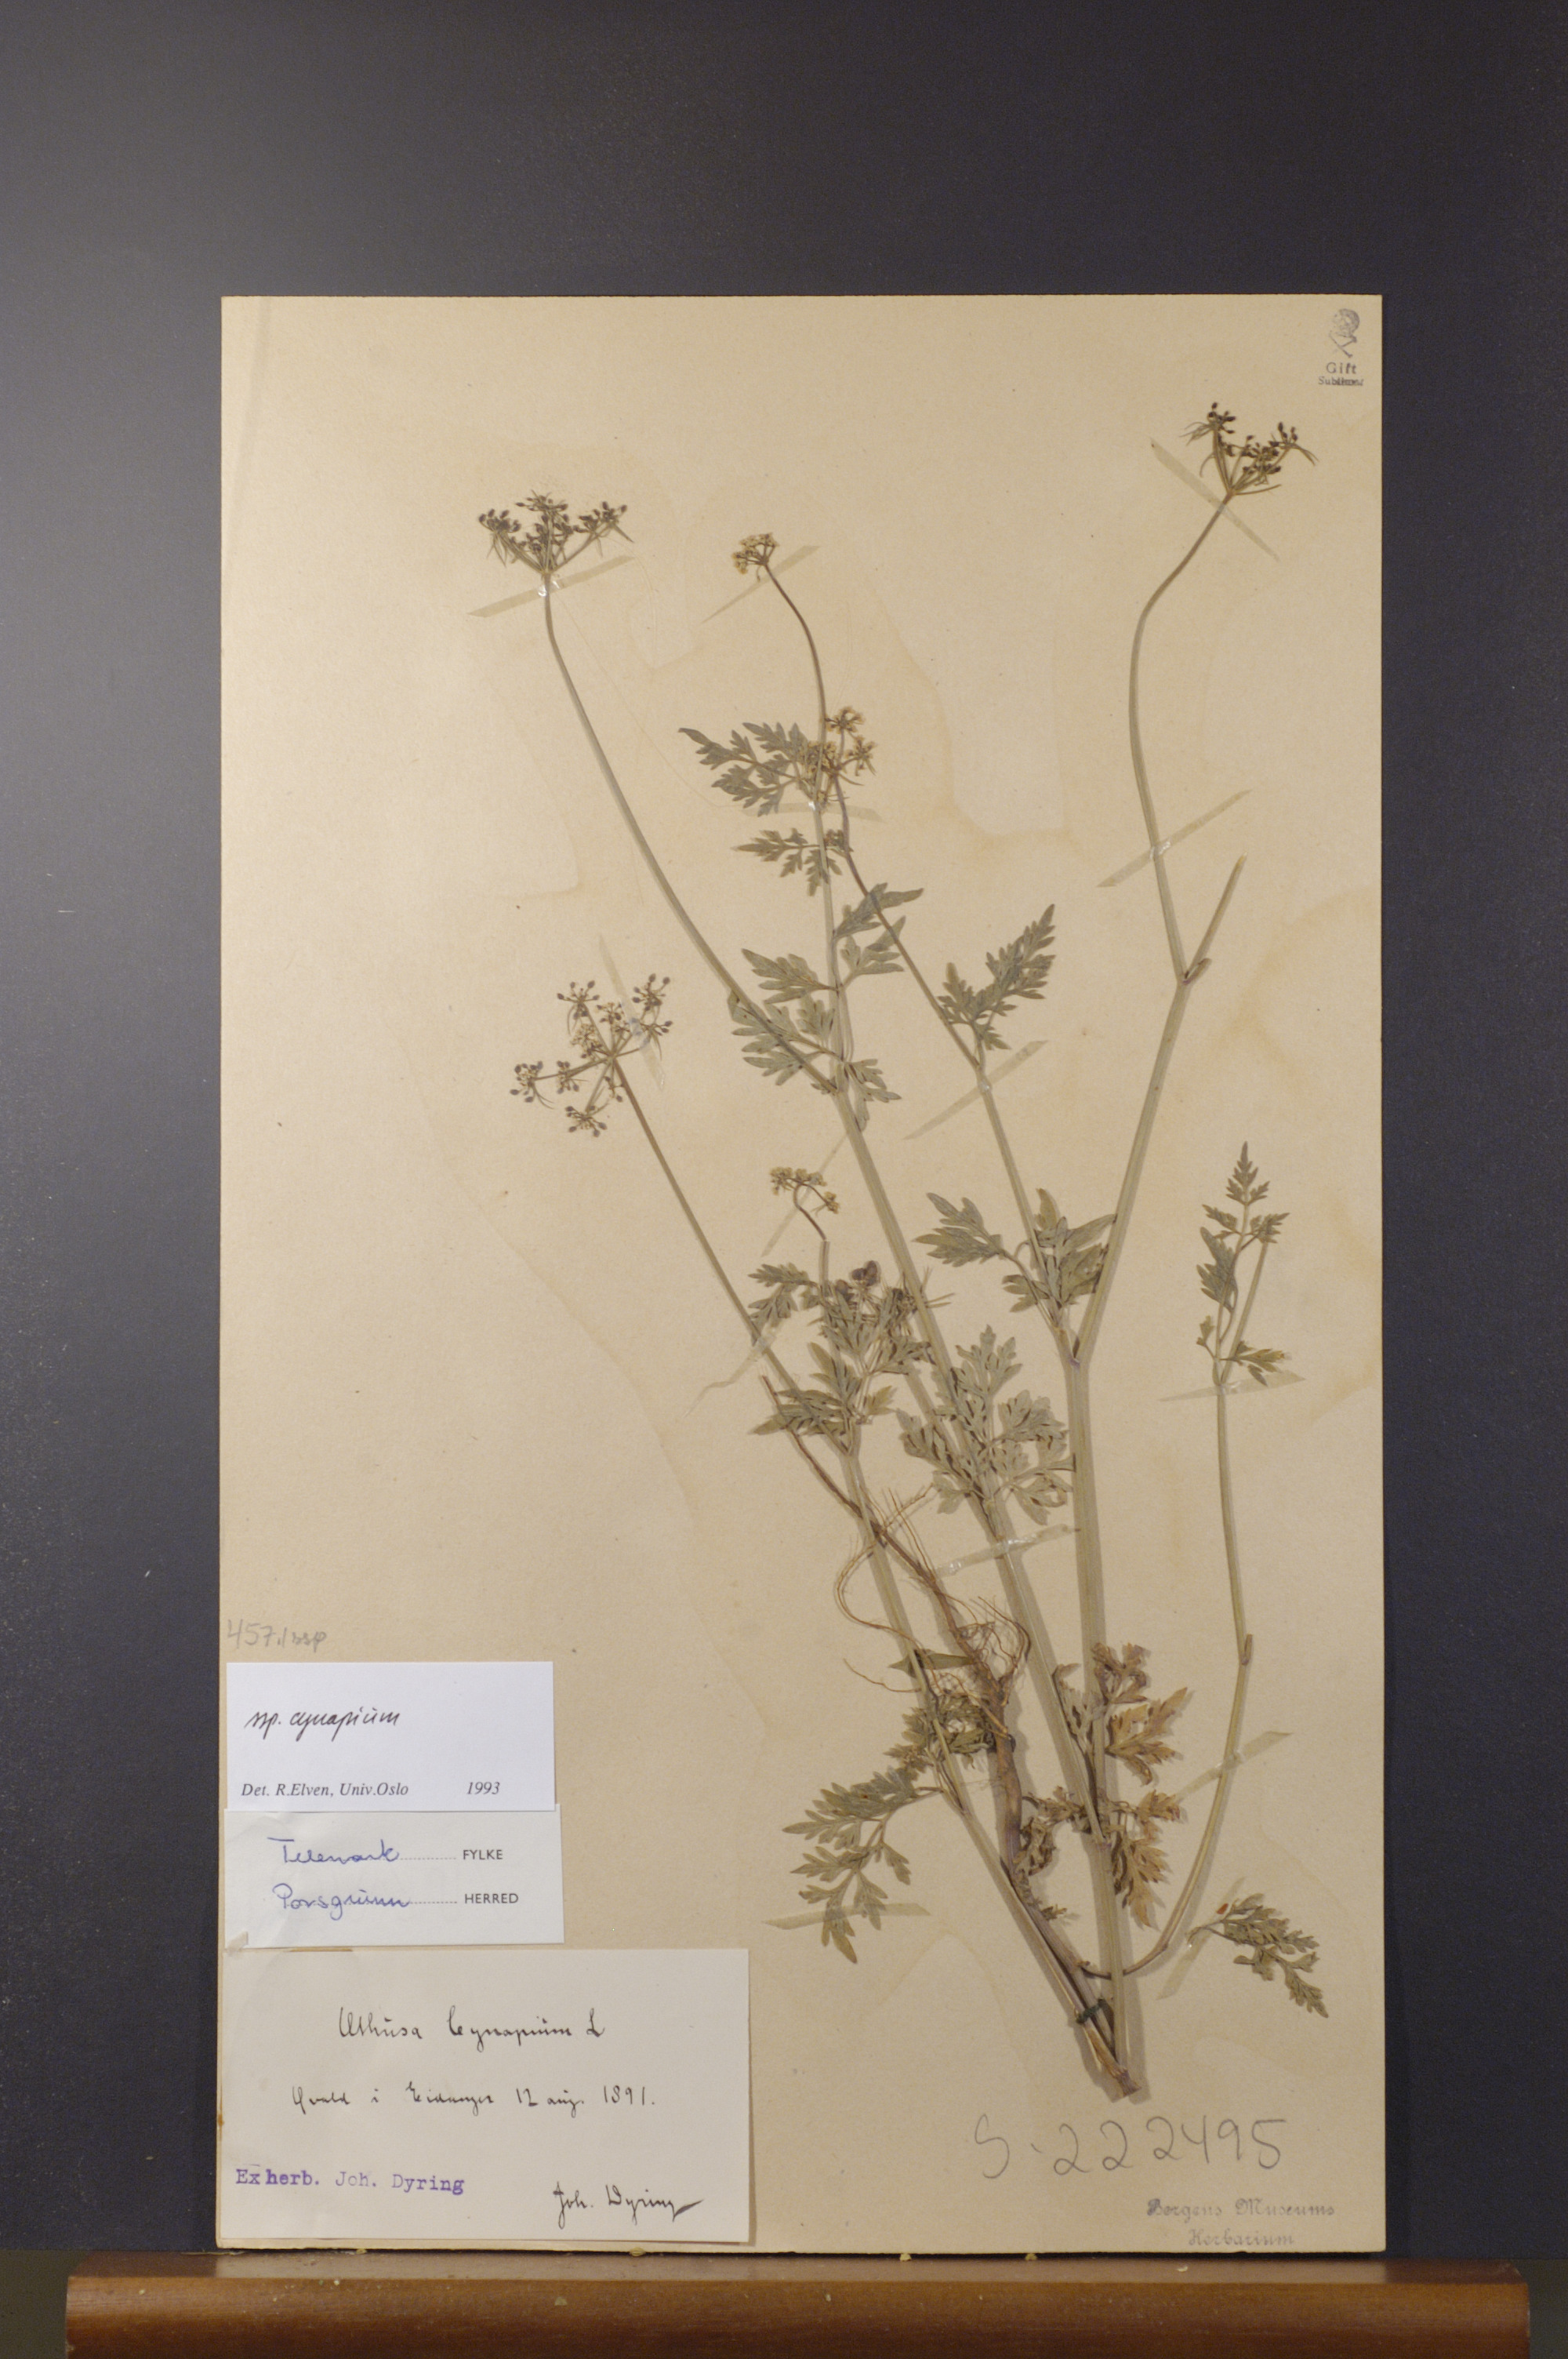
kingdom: Plantae
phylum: Tracheophyta
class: Magnoliopsida
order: Apiales
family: Apiaceae
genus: Aethusa
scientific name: Aethusa cynapium
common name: Fool's parsley
